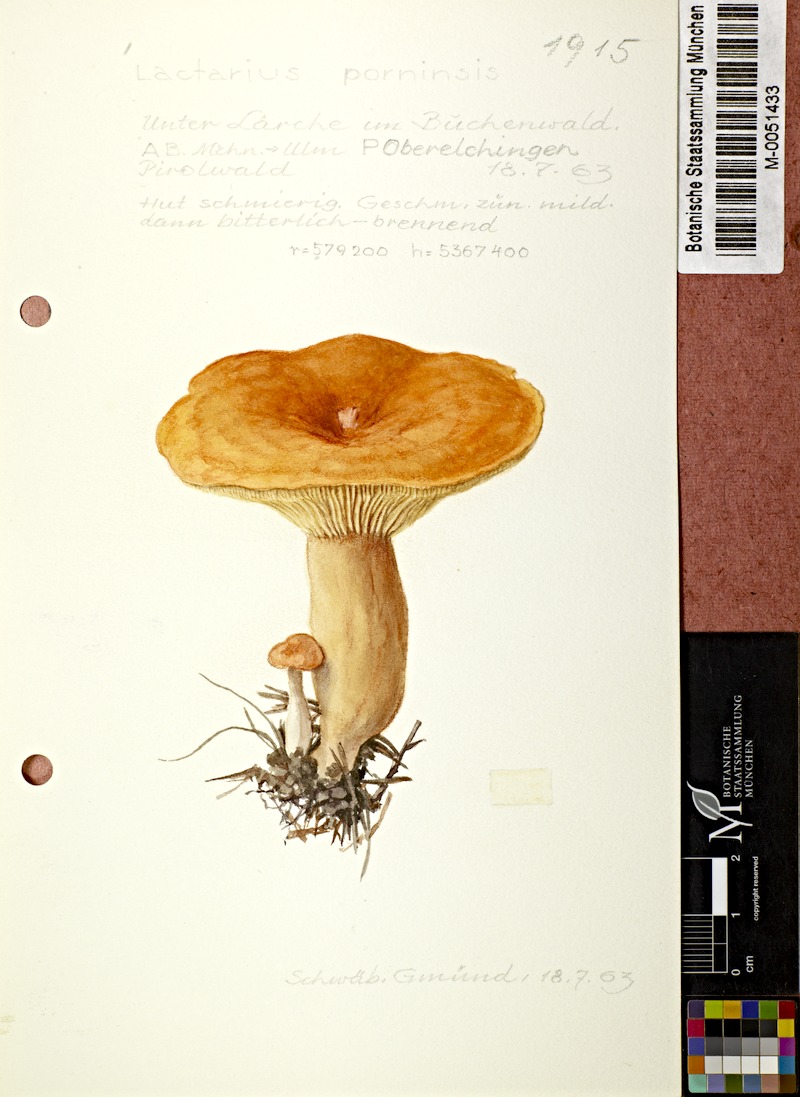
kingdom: Fungi
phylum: Basidiomycota
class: Agaricomycetes
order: Russulales
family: Russulaceae
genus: Lactarius
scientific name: Lactarius porninsis
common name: Larch milkcap
